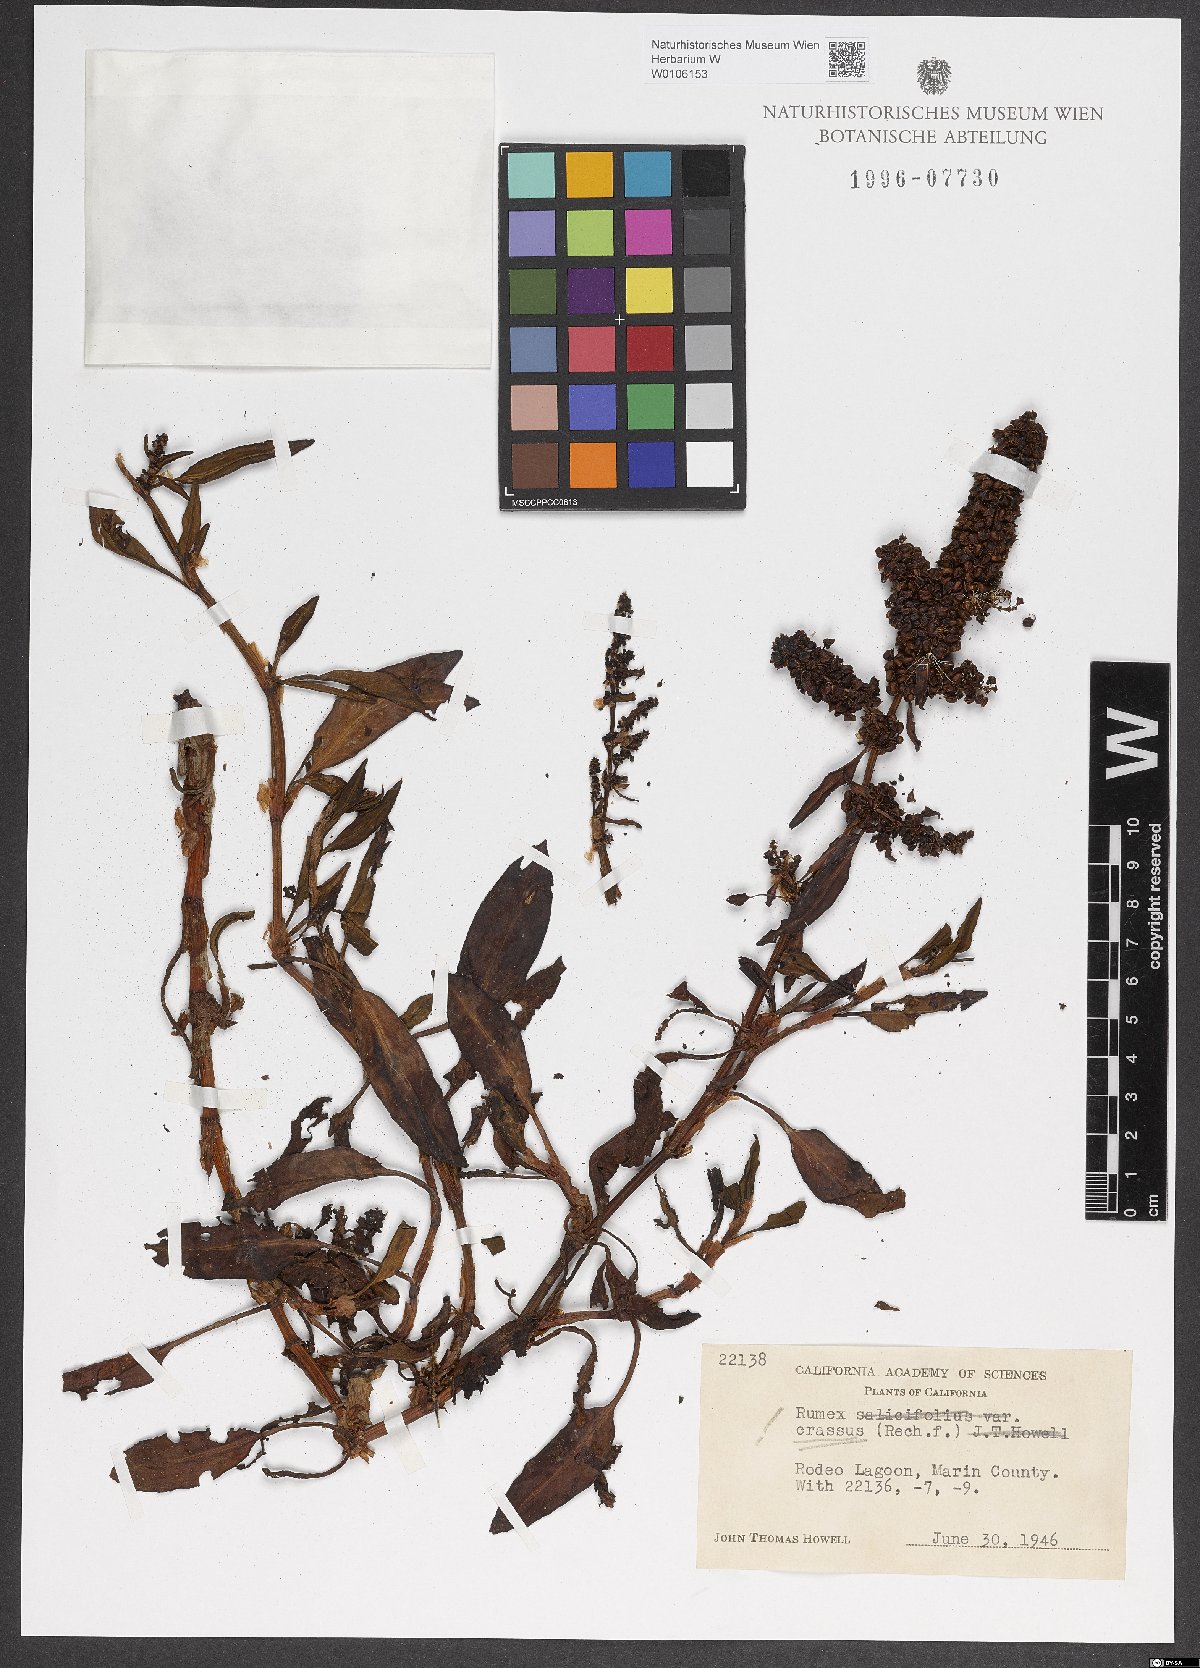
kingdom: Plantae
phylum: Tracheophyta
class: Magnoliopsida
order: Caryophyllales
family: Polygonaceae
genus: Rumex
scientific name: Rumex crassus
